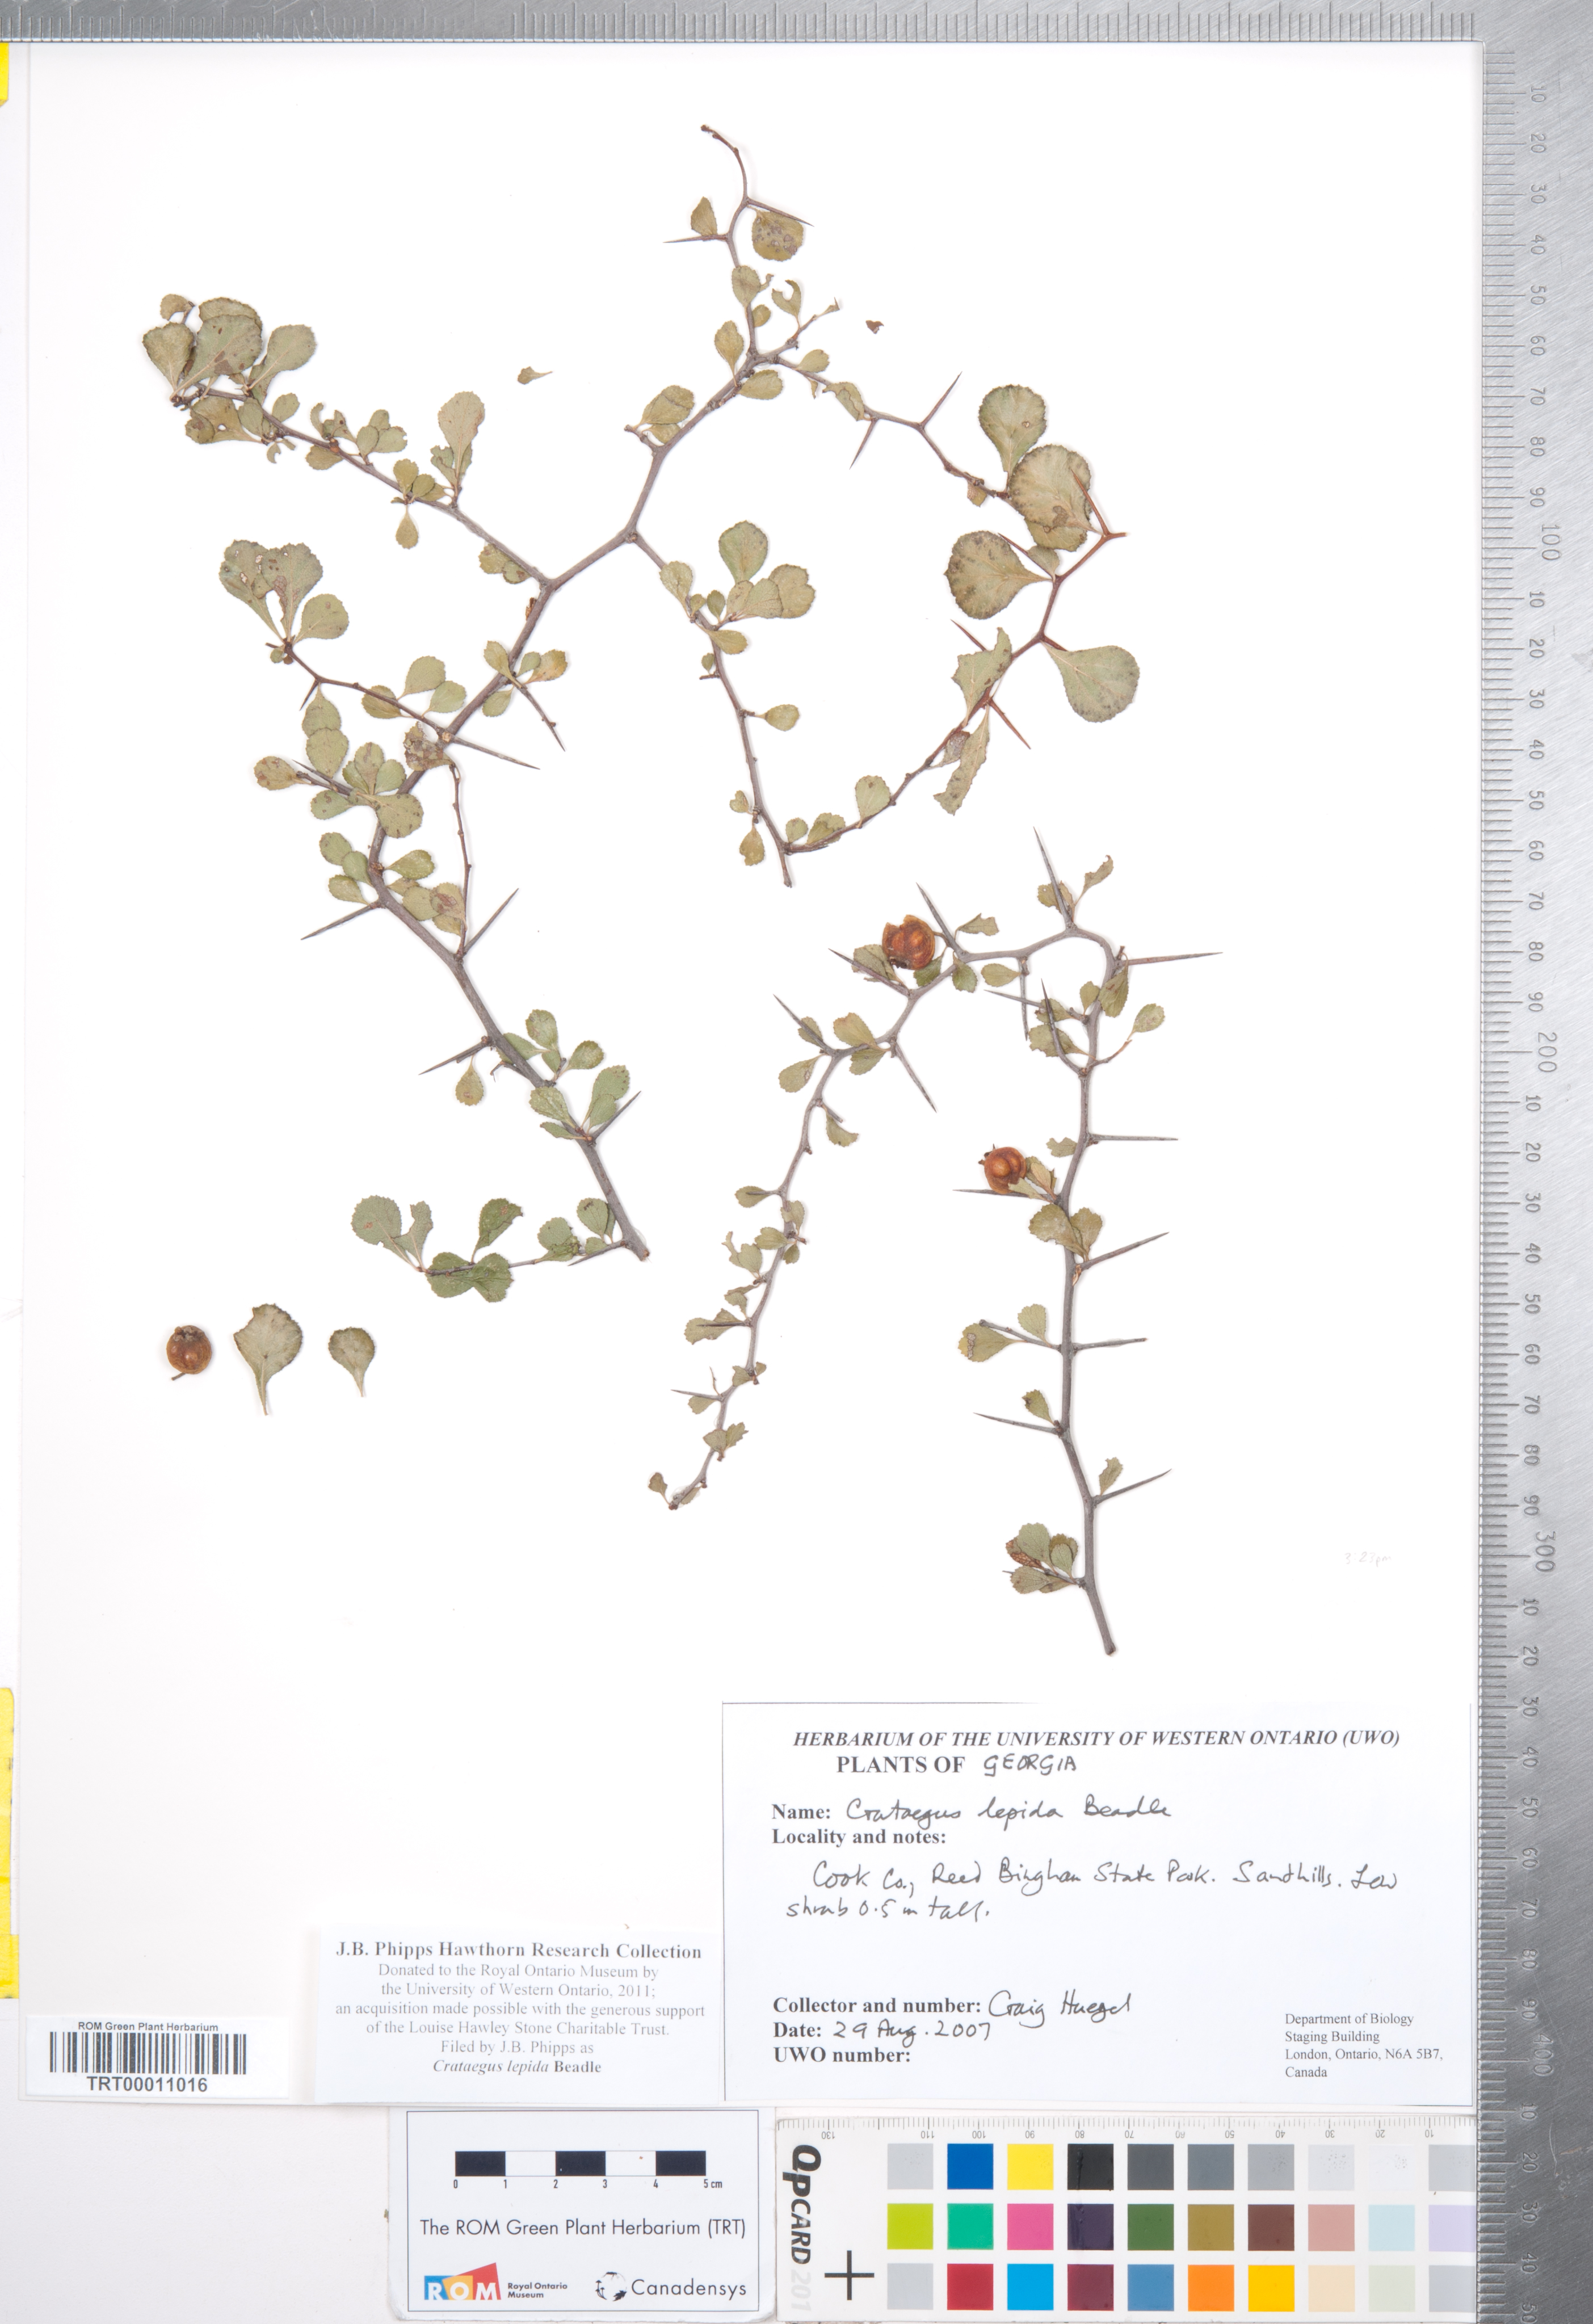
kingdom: Plantae
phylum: Tracheophyta
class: Magnoliopsida
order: Rosales
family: Rosaceae
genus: Crataegus
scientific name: Crataegus munda
